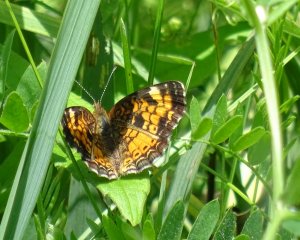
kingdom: Animalia
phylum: Arthropoda
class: Insecta
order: Lepidoptera
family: Nymphalidae
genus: Phyciodes
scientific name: Phyciodes tharos
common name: Northern Crescent
